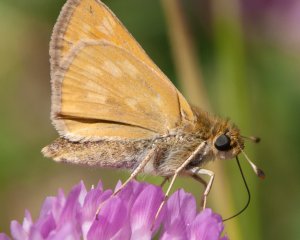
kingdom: Animalia
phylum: Arthropoda
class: Insecta
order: Lepidoptera
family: Hesperiidae
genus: Hesperia
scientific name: Hesperia sassacus
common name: Sassacus Skipper
